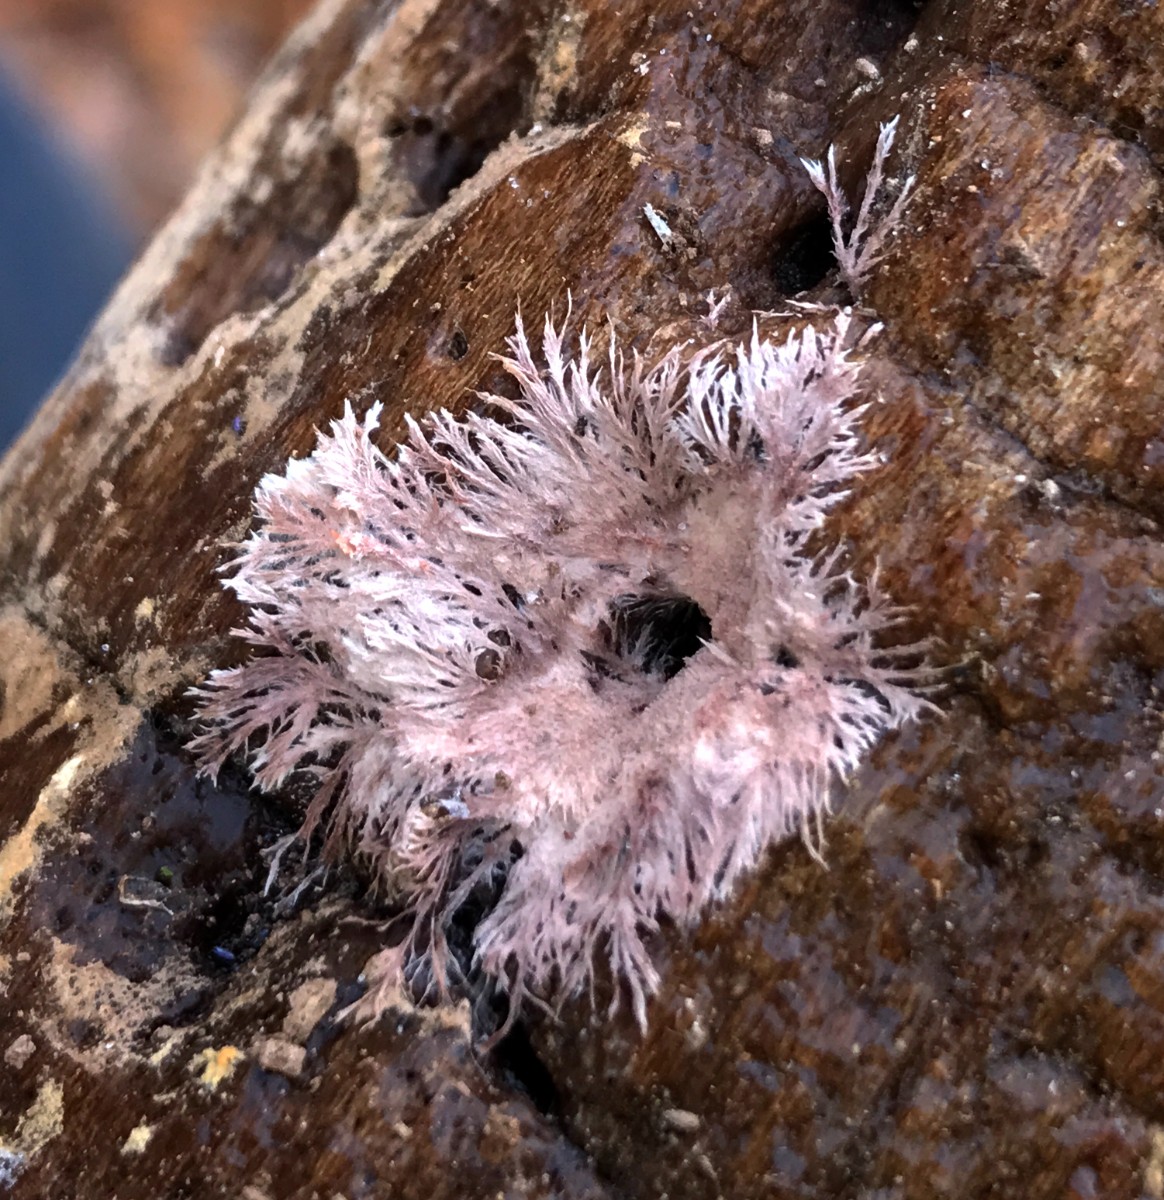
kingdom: Fungi
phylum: Basidiomycota
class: Agaricomycetes
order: Polyporales
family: Steccherinaceae
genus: Steccherinum
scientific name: Steccherinum fimbriatum
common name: trådet skønpig
